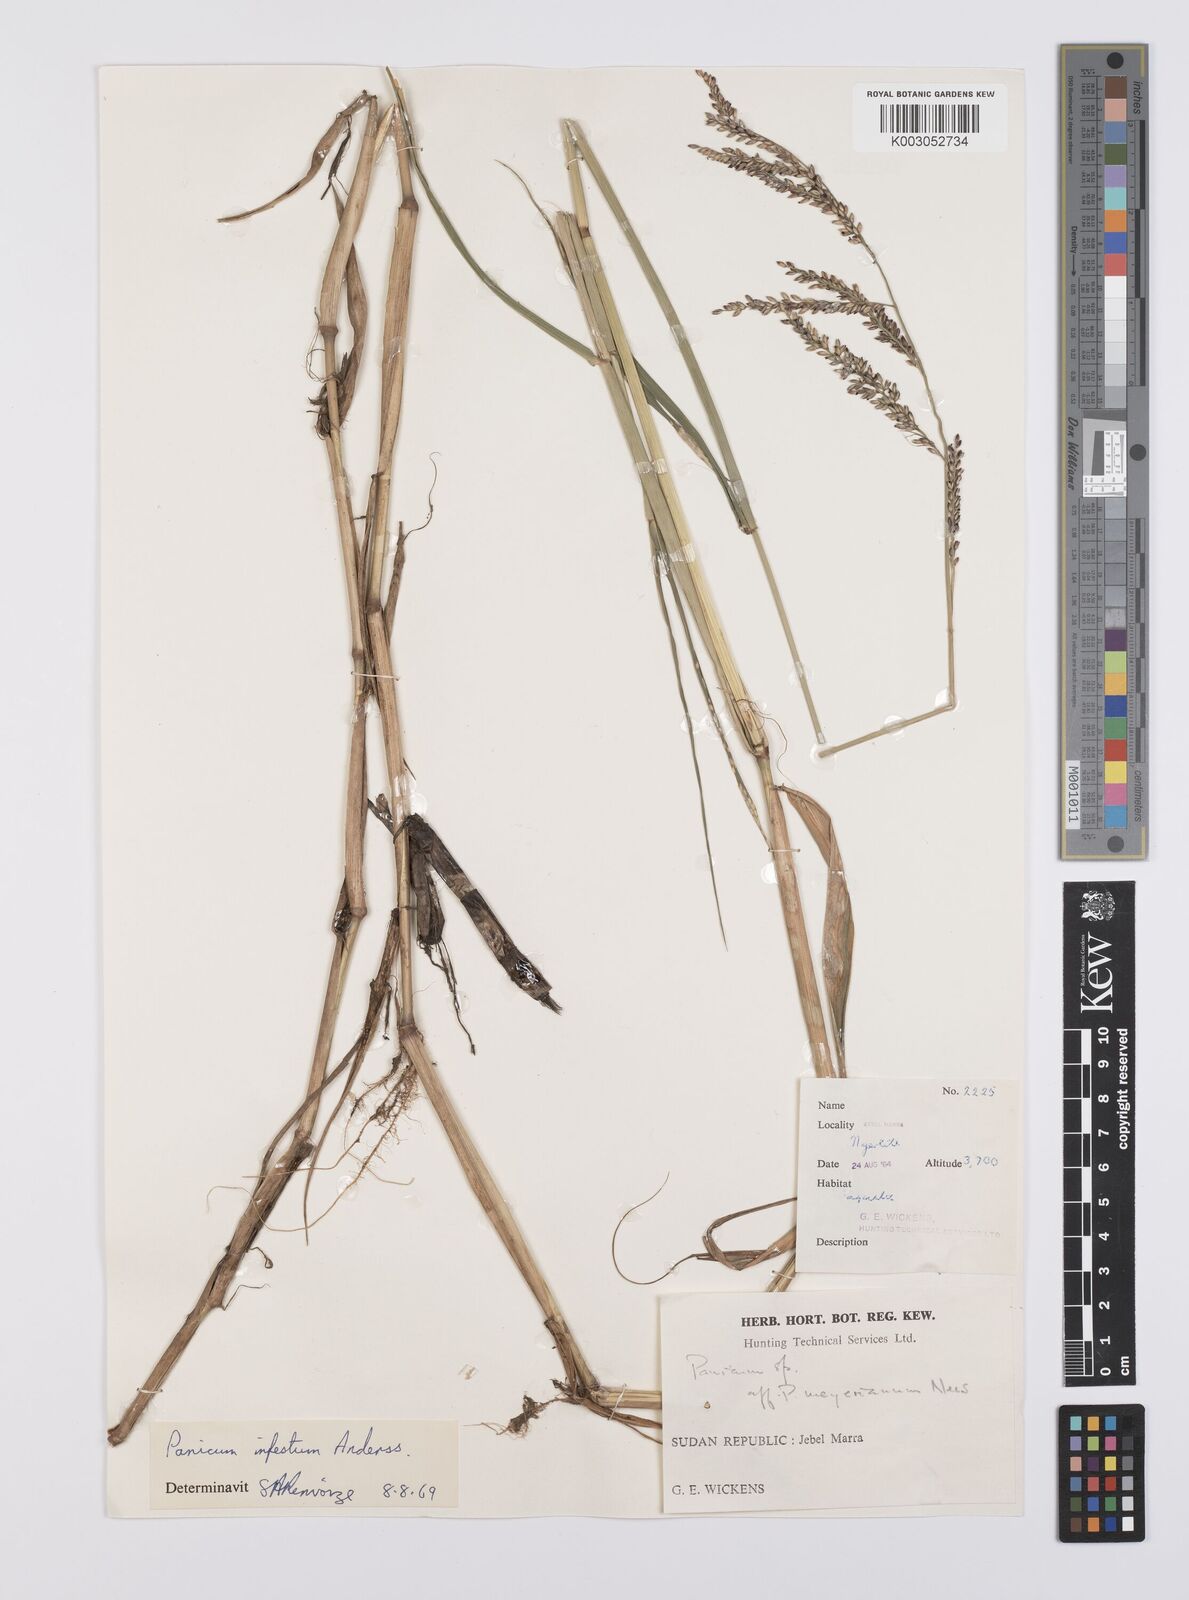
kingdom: Plantae
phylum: Tracheophyta
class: Liliopsida
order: Poales
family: Poaceae
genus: Urochloa
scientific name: Urochloa mutica
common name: Para grass
